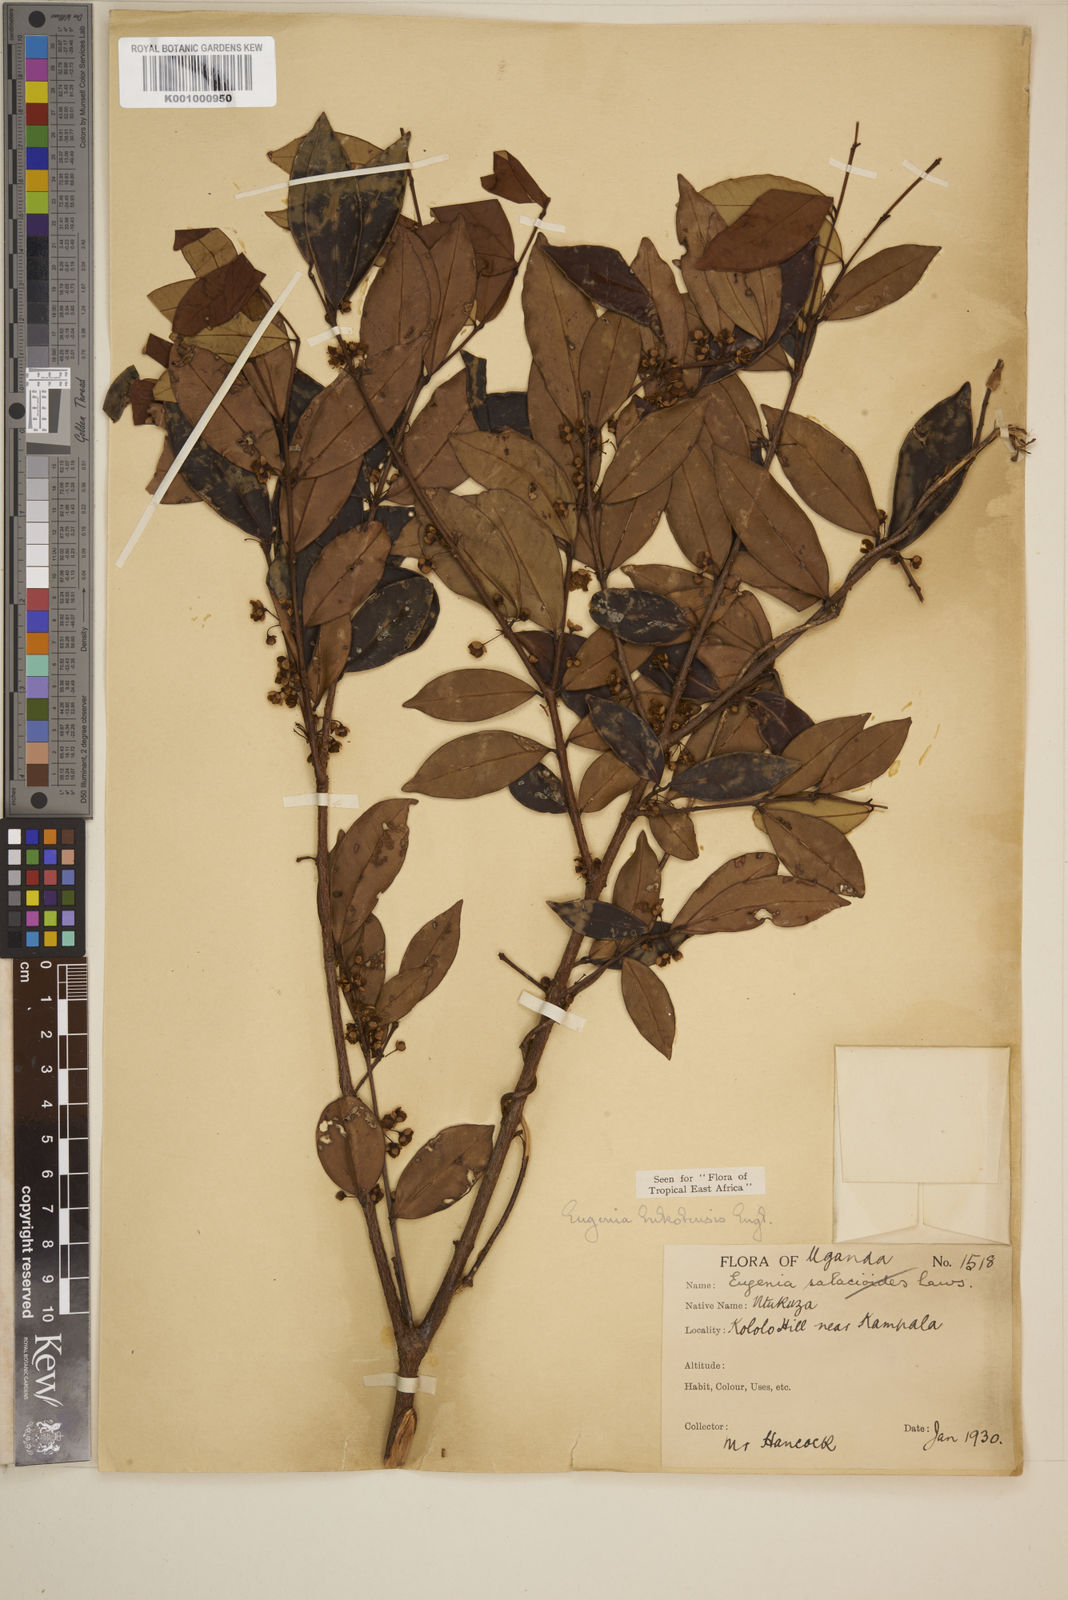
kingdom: Plantae
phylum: Tracheophyta
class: Magnoliopsida
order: Myrtales
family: Myrtaceae
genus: Eugenia
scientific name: Eugenia bukobensis
